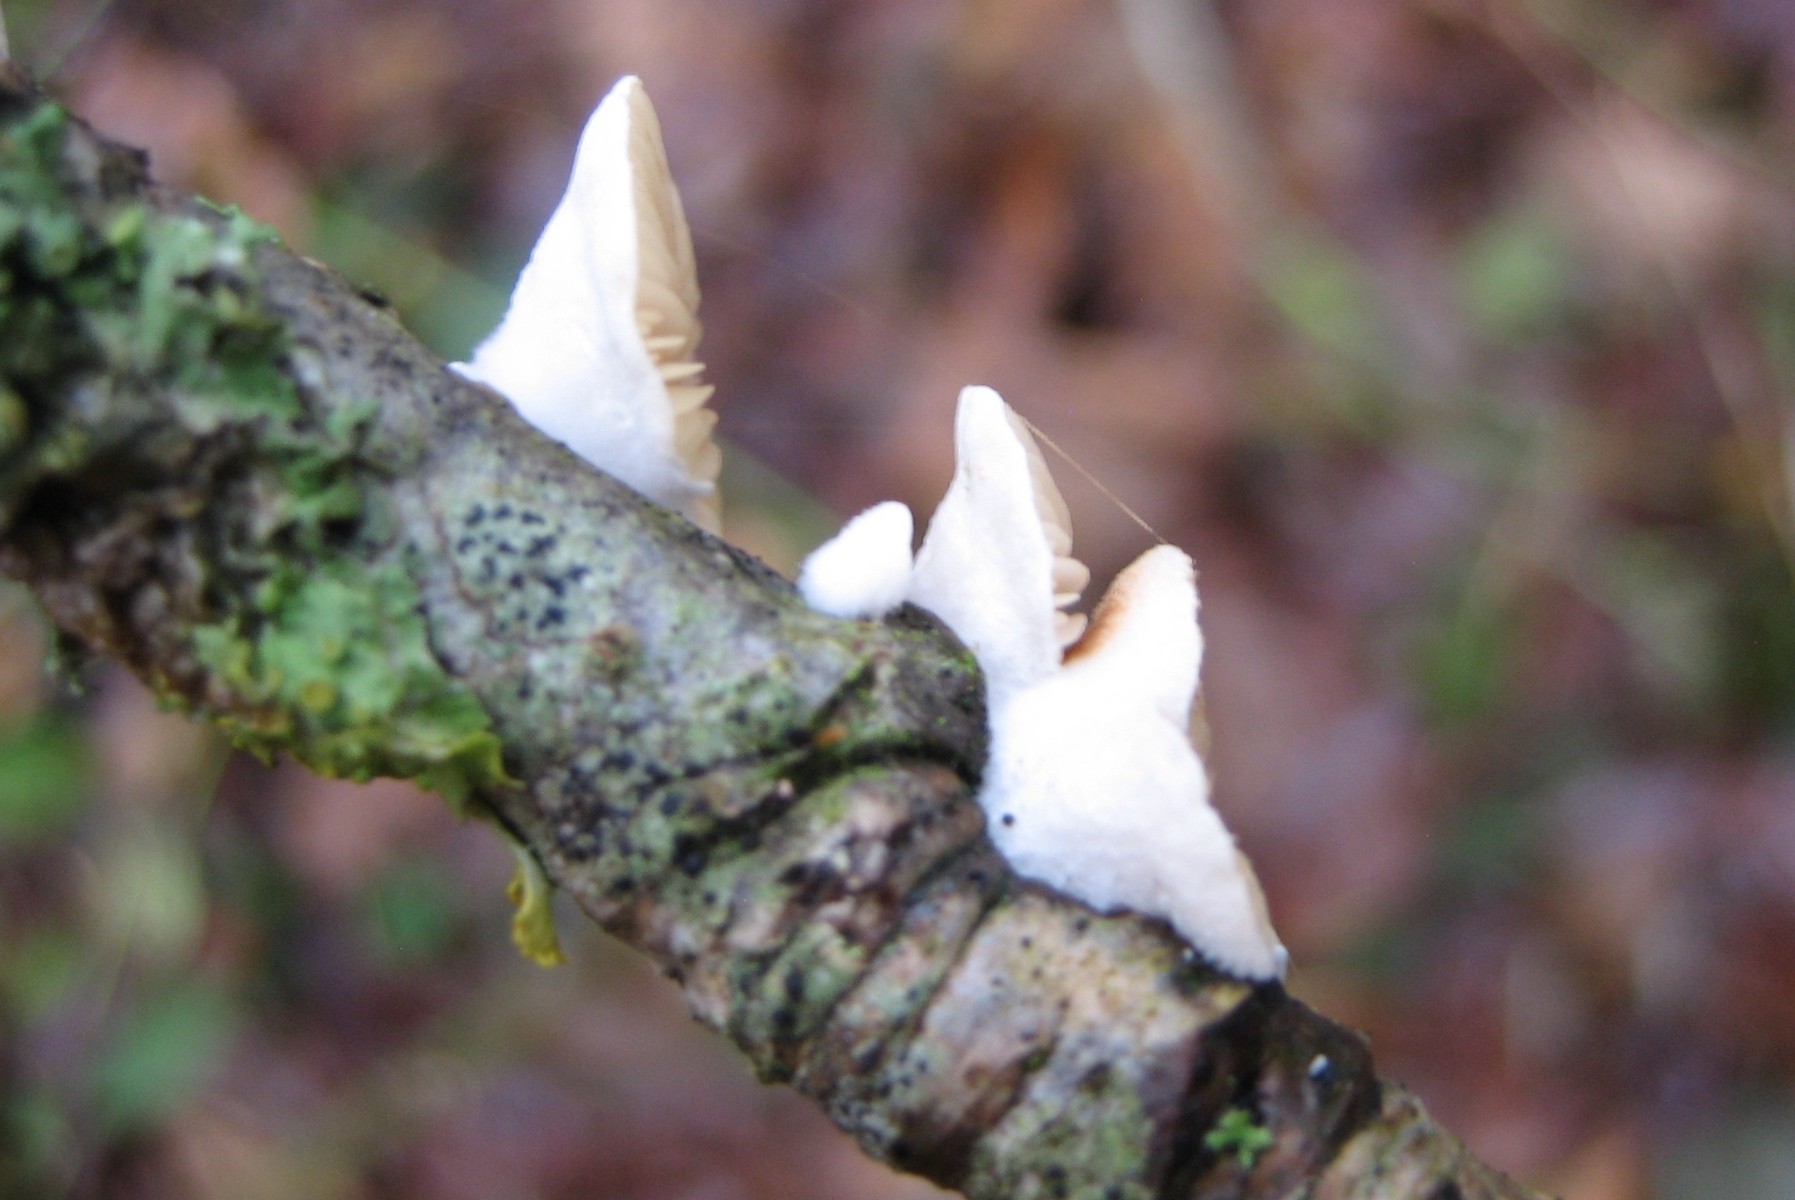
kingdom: Fungi
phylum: Basidiomycota
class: Agaricomycetes
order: Agaricales
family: Crepidotaceae
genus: Crepidotus
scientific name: Crepidotus
